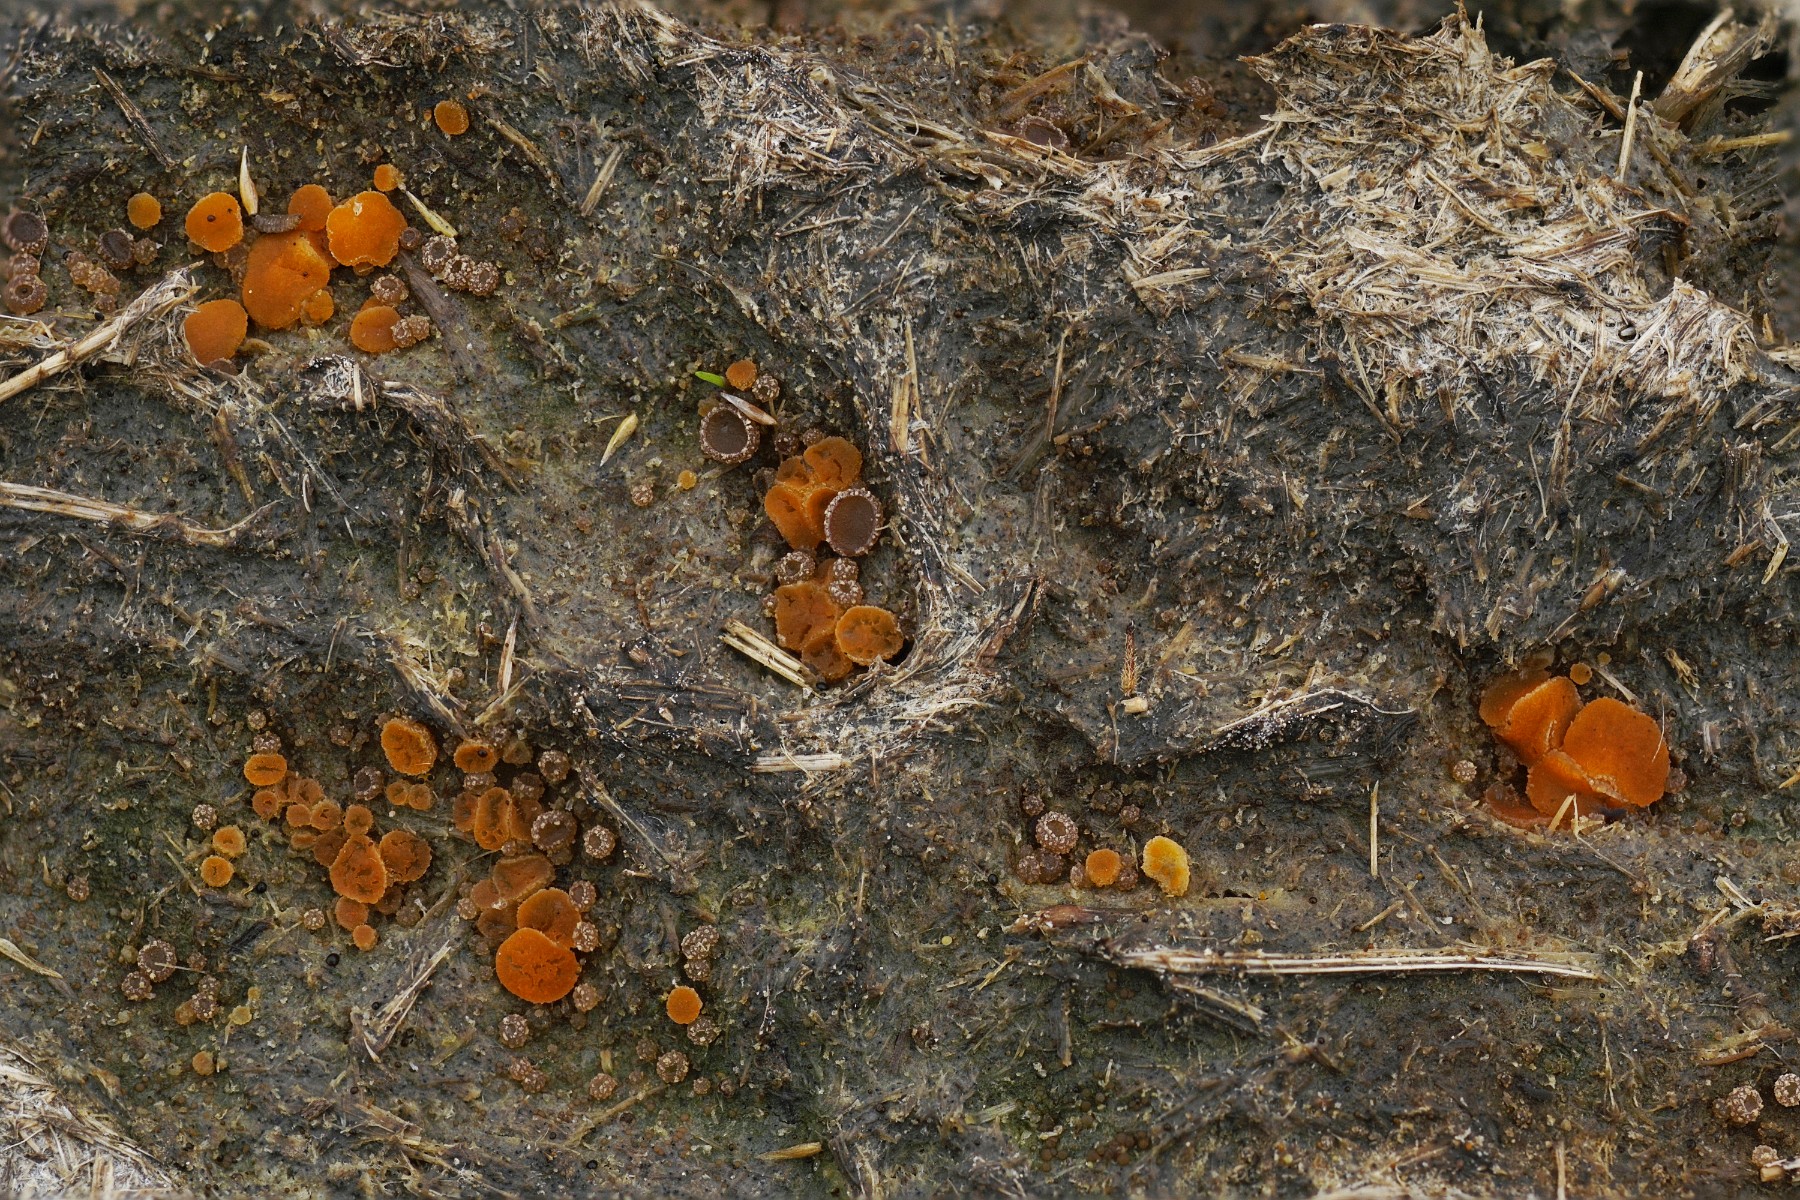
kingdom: Fungi
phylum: Ascomycota
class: Pezizomycetes
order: Pezizales
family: Pyronemataceae
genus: Cheilymenia
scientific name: Cheilymenia granulata
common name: møgbæger
